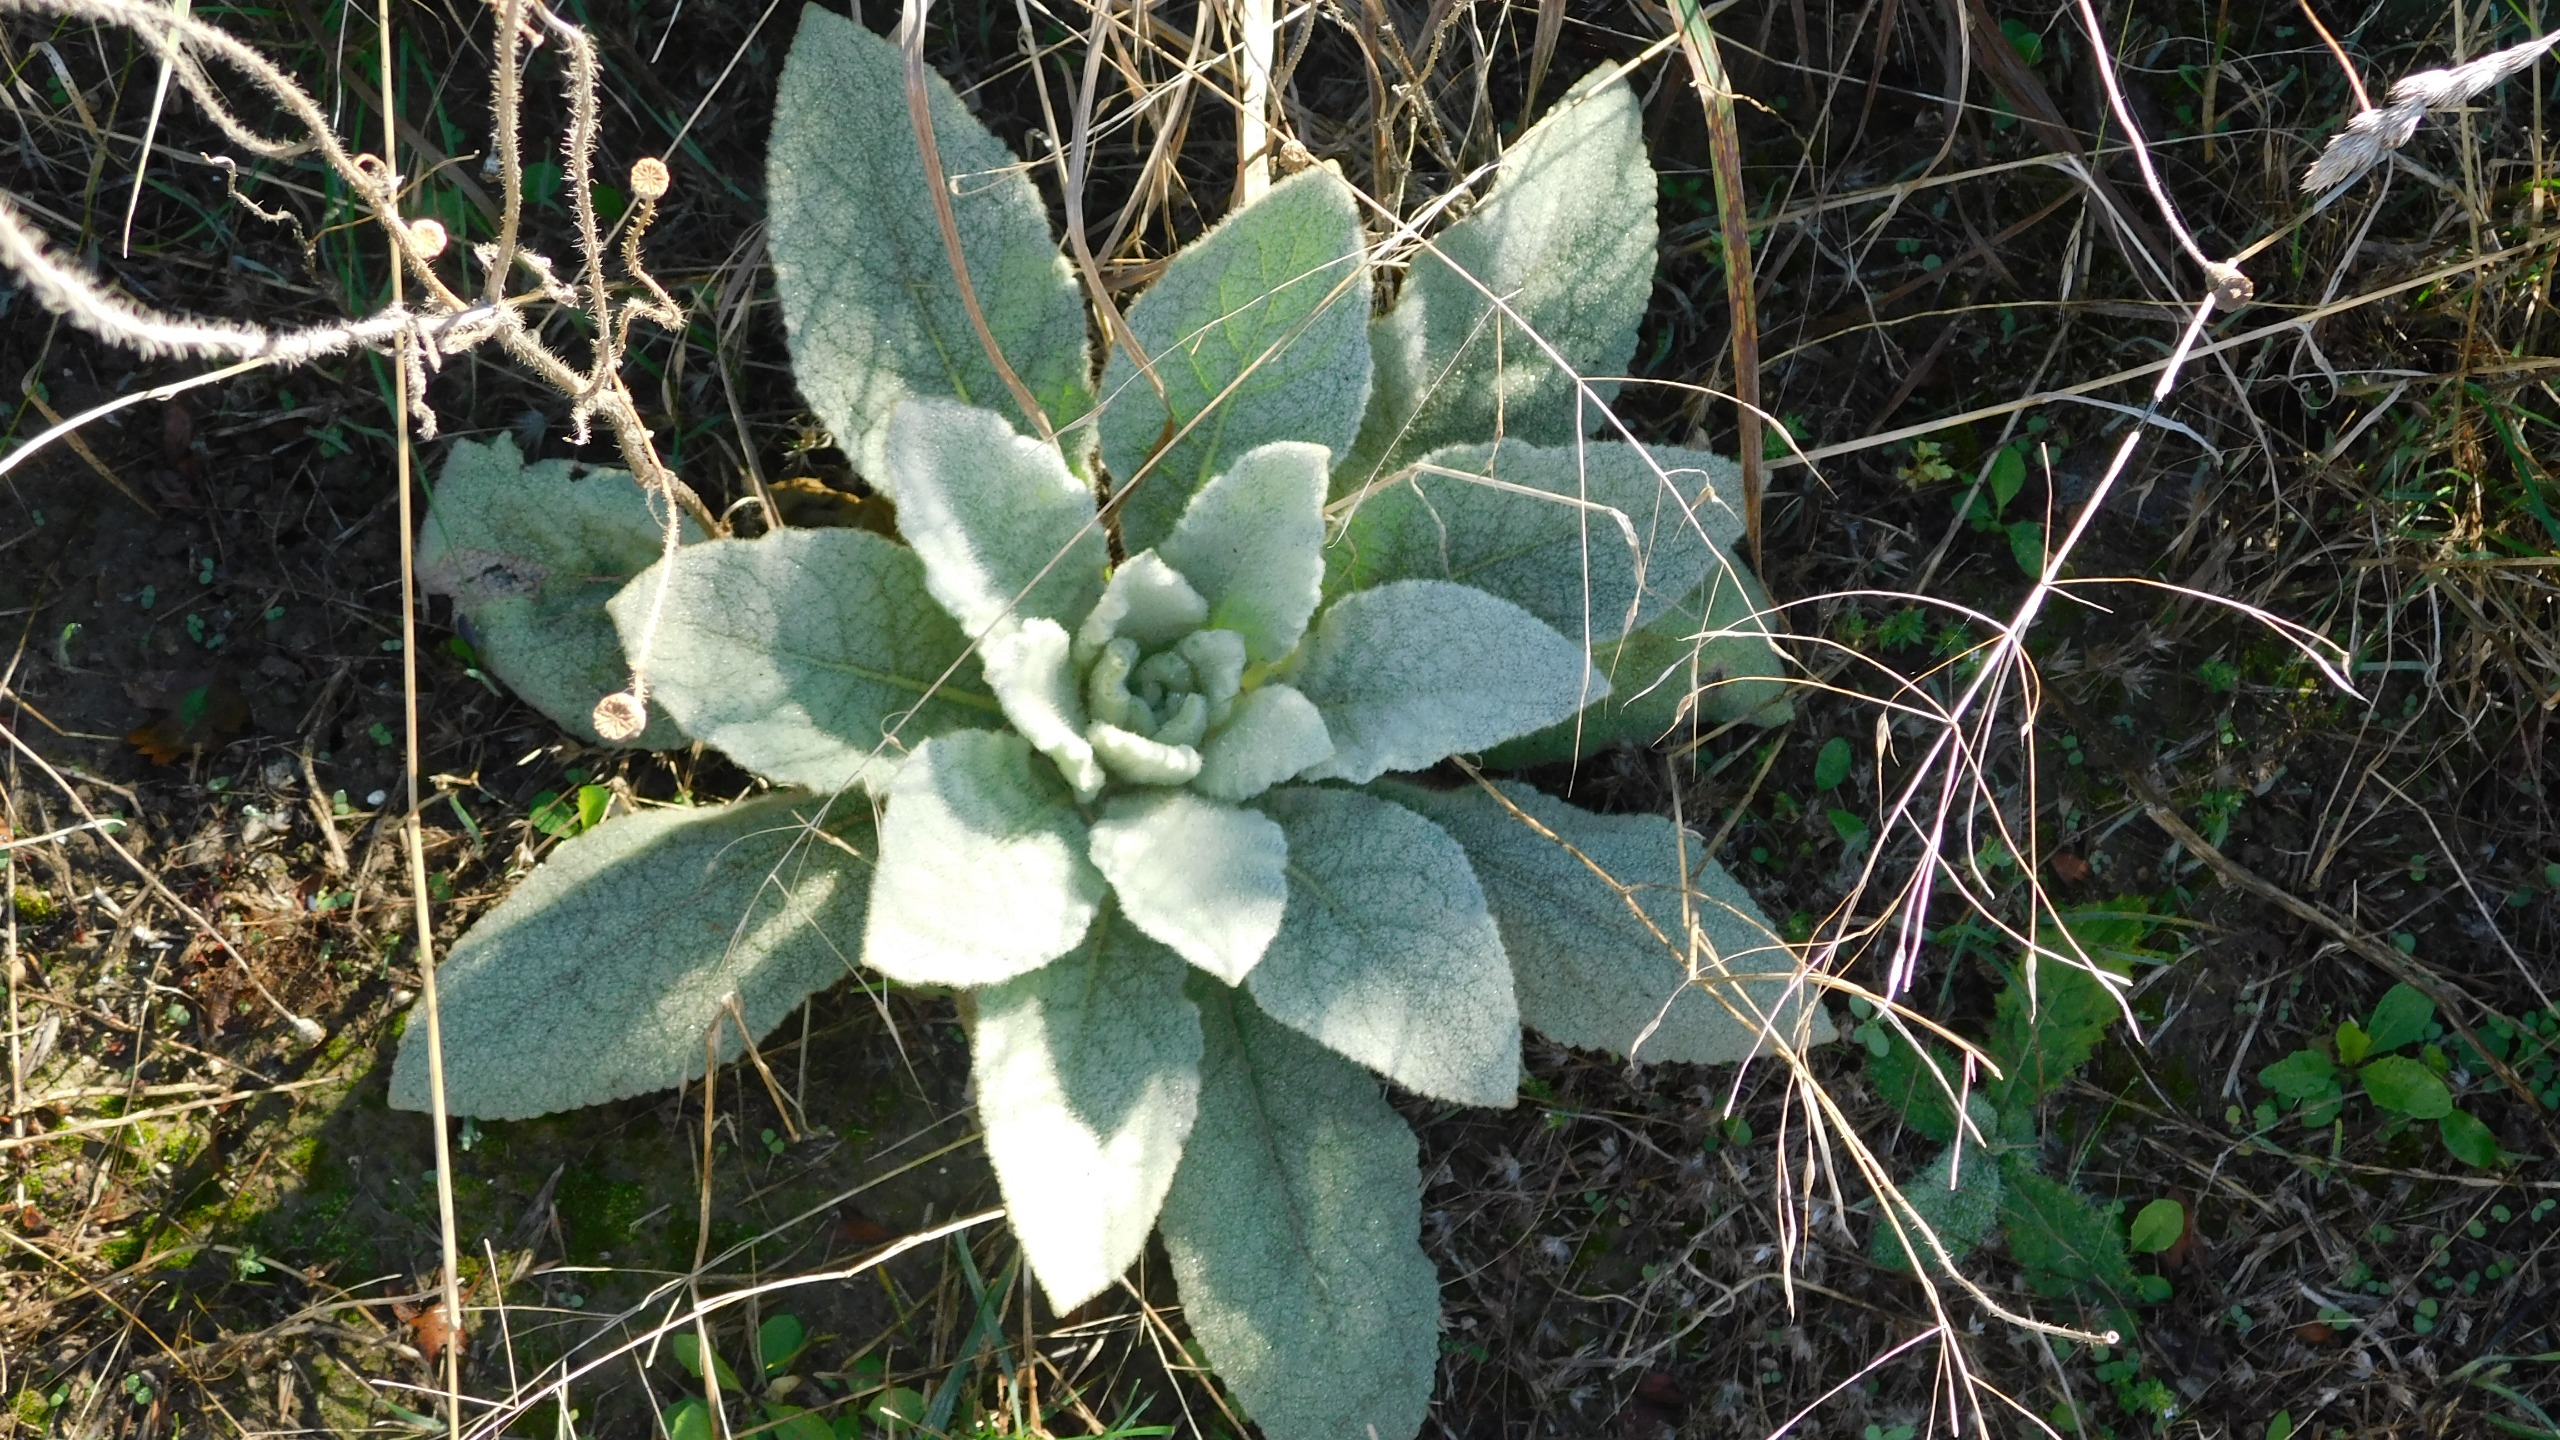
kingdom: Plantae
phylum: Tracheophyta
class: Magnoliopsida
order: Lamiales
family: Scrophulariaceae
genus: Verbascum
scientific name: Verbascum
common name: Kongelysslægten
